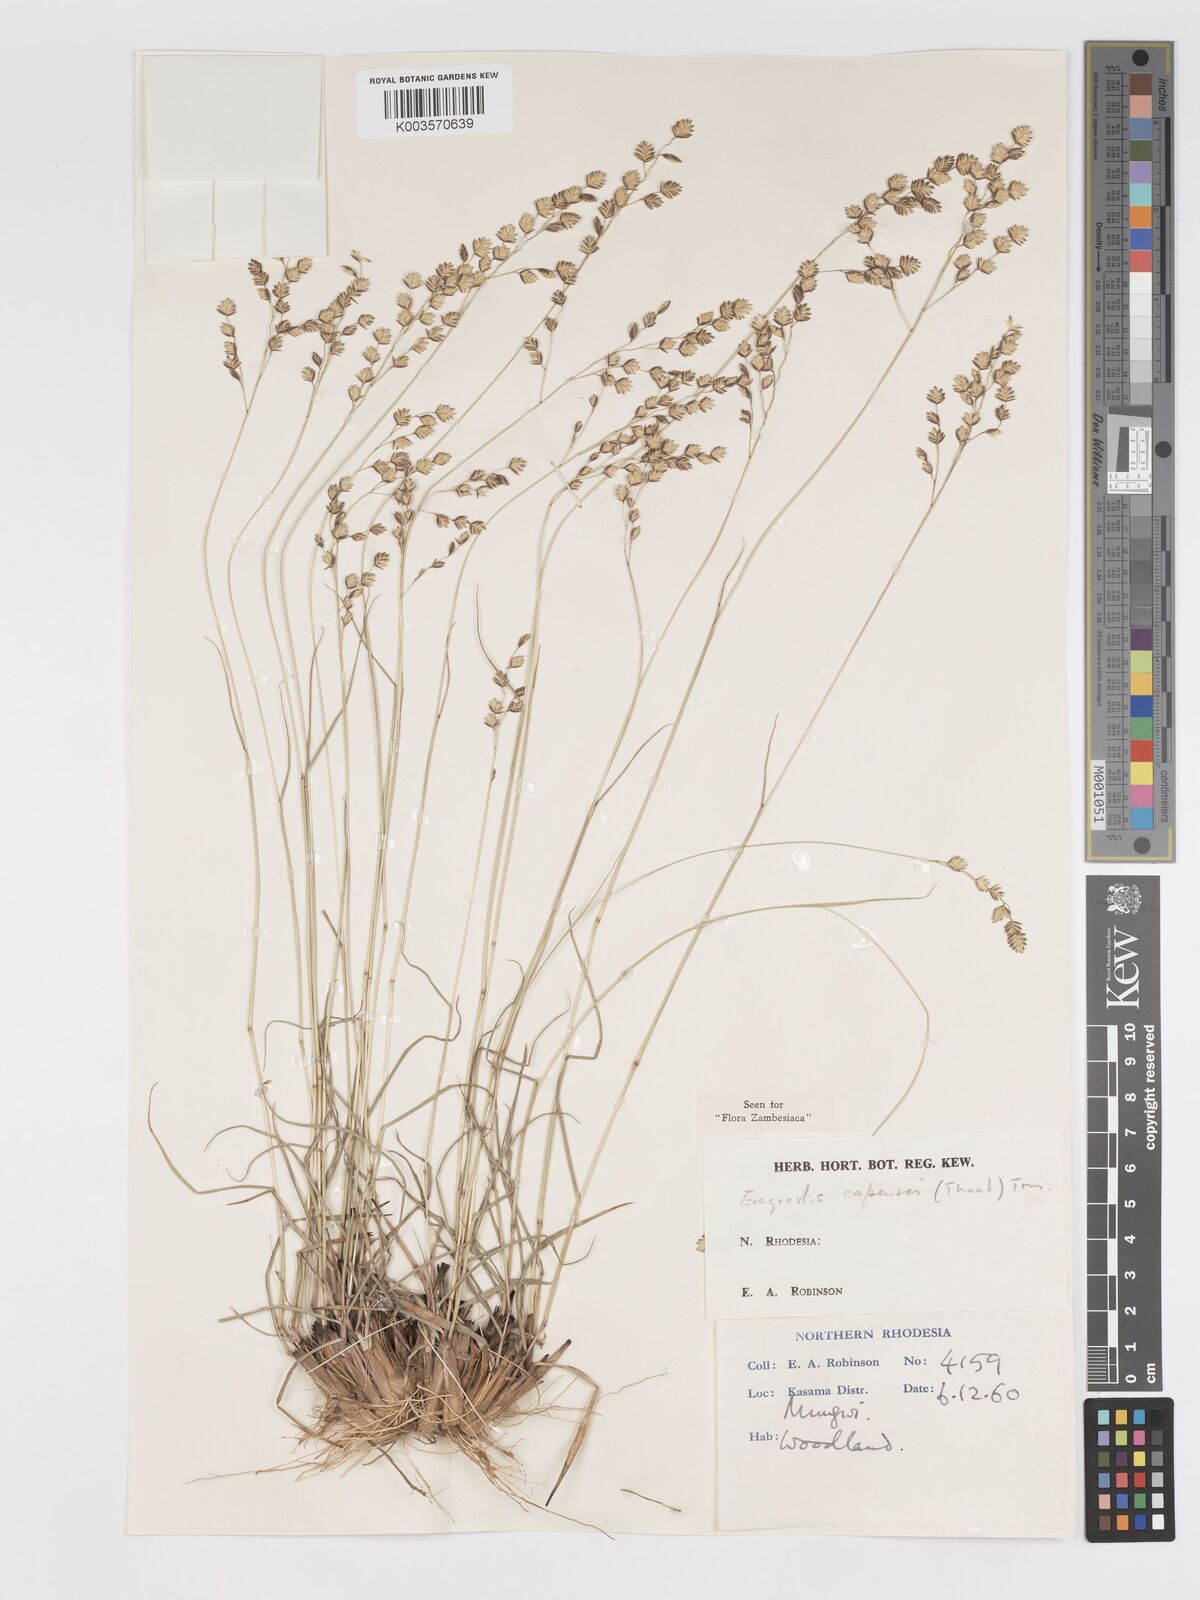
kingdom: Plantae
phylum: Tracheophyta
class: Liliopsida
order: Poales
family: Poaceae
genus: Eragrostis
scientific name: Eragrostis capensis
